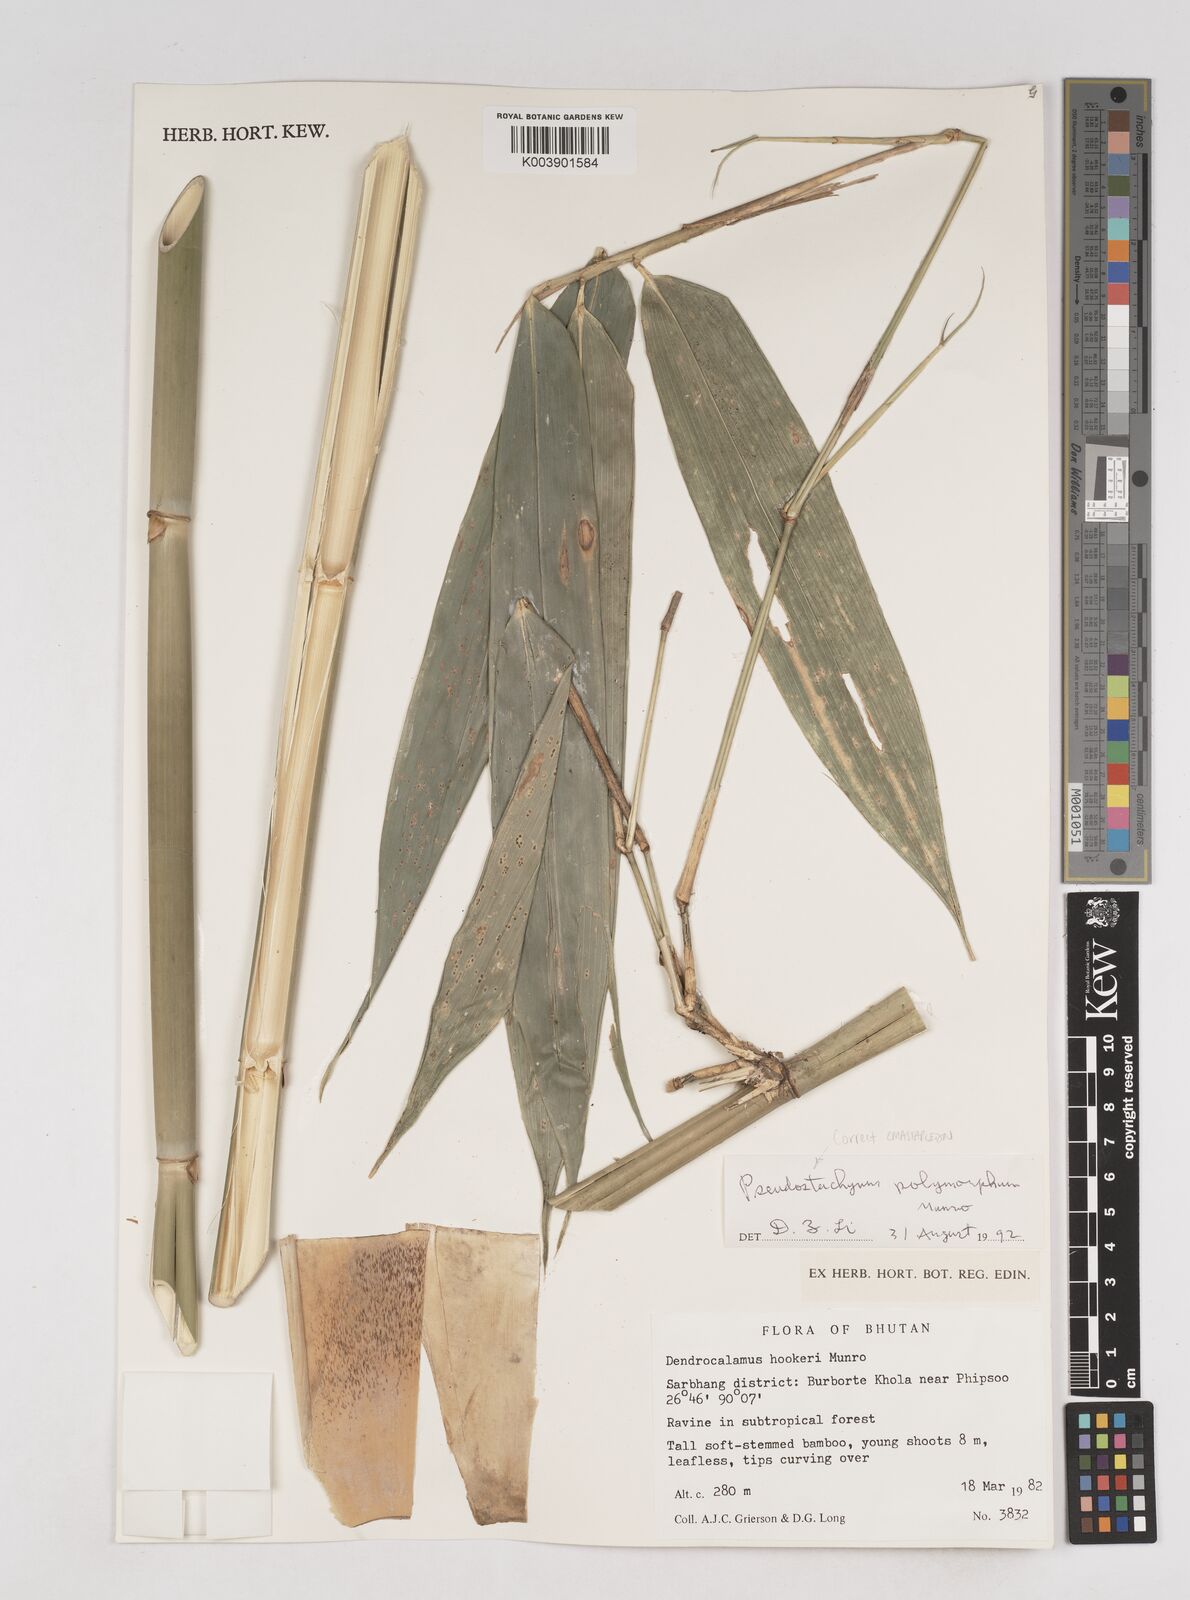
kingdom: Plantae
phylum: Tracheophyta
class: Liliopsida
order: Poales
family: Poaceae
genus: Pseudostachyum
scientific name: Pseudostachyum polymorphum
